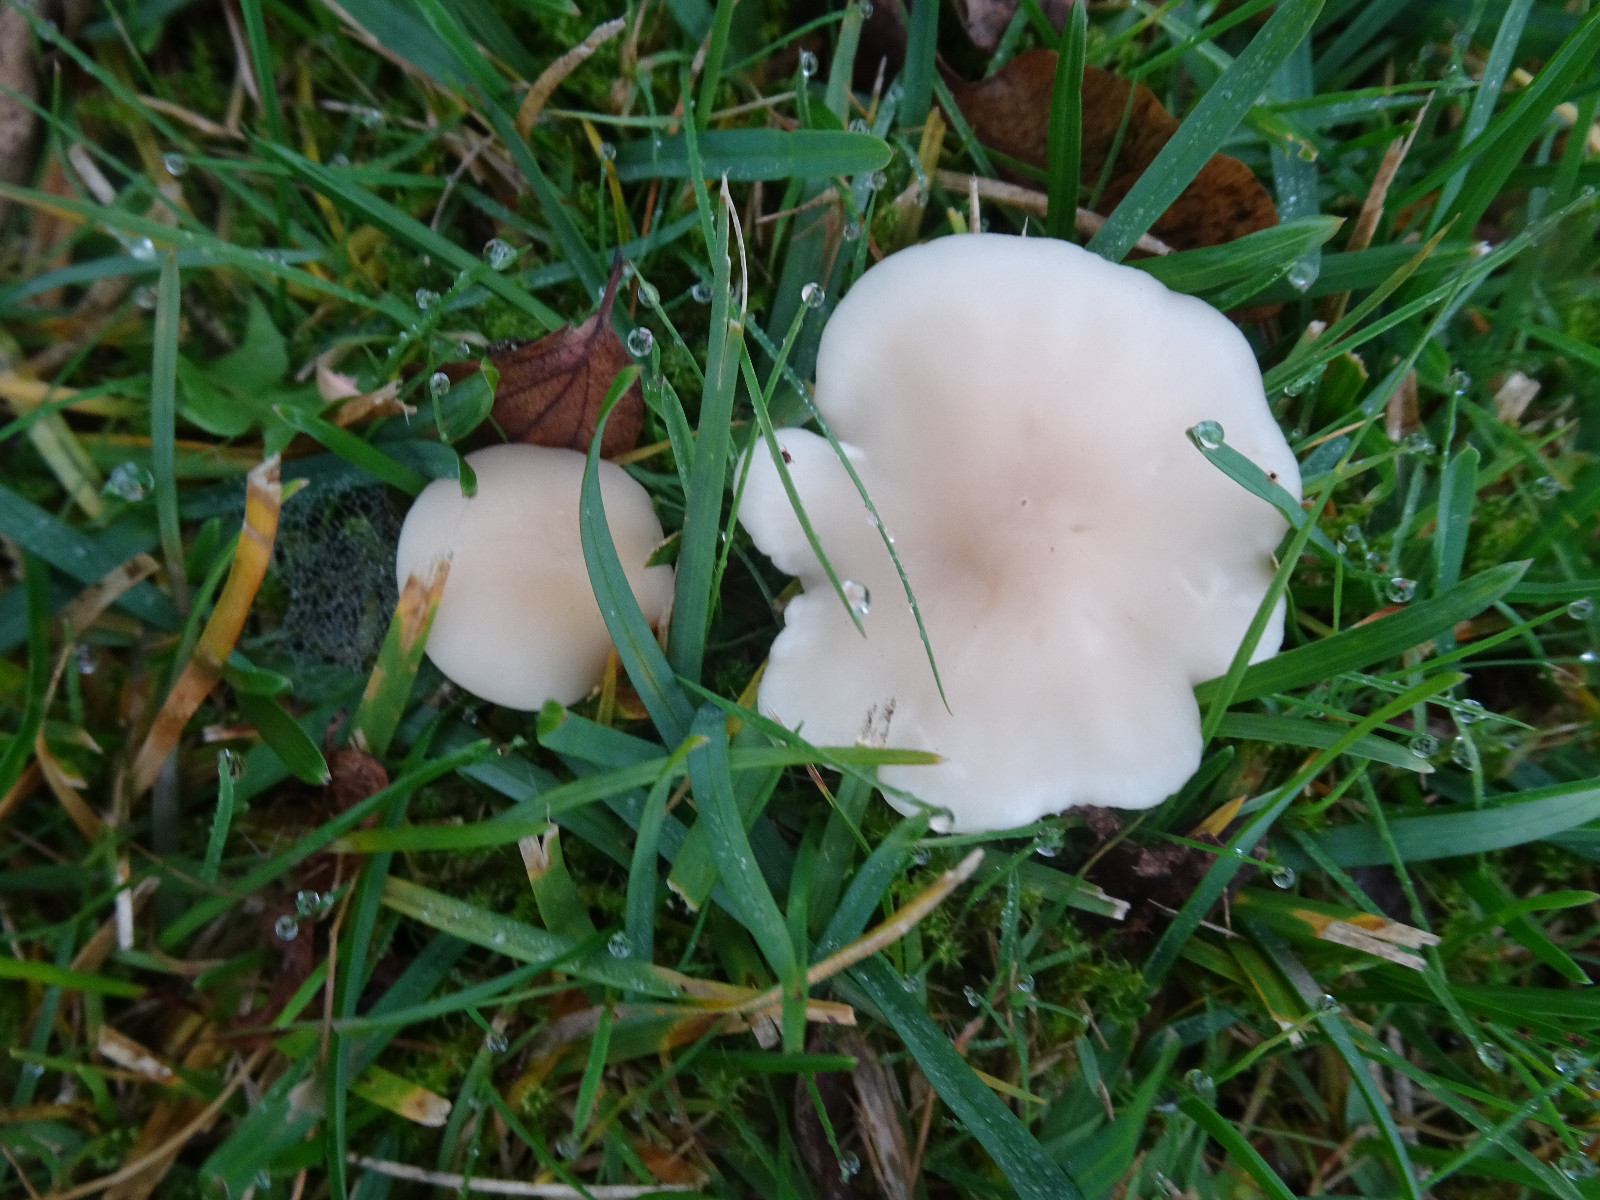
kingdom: Fungi
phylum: Basidiomycota
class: Agaricomycetes
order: Agaricales
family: Tricholomataceae
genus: Clitocybe
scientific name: Clitocybe
